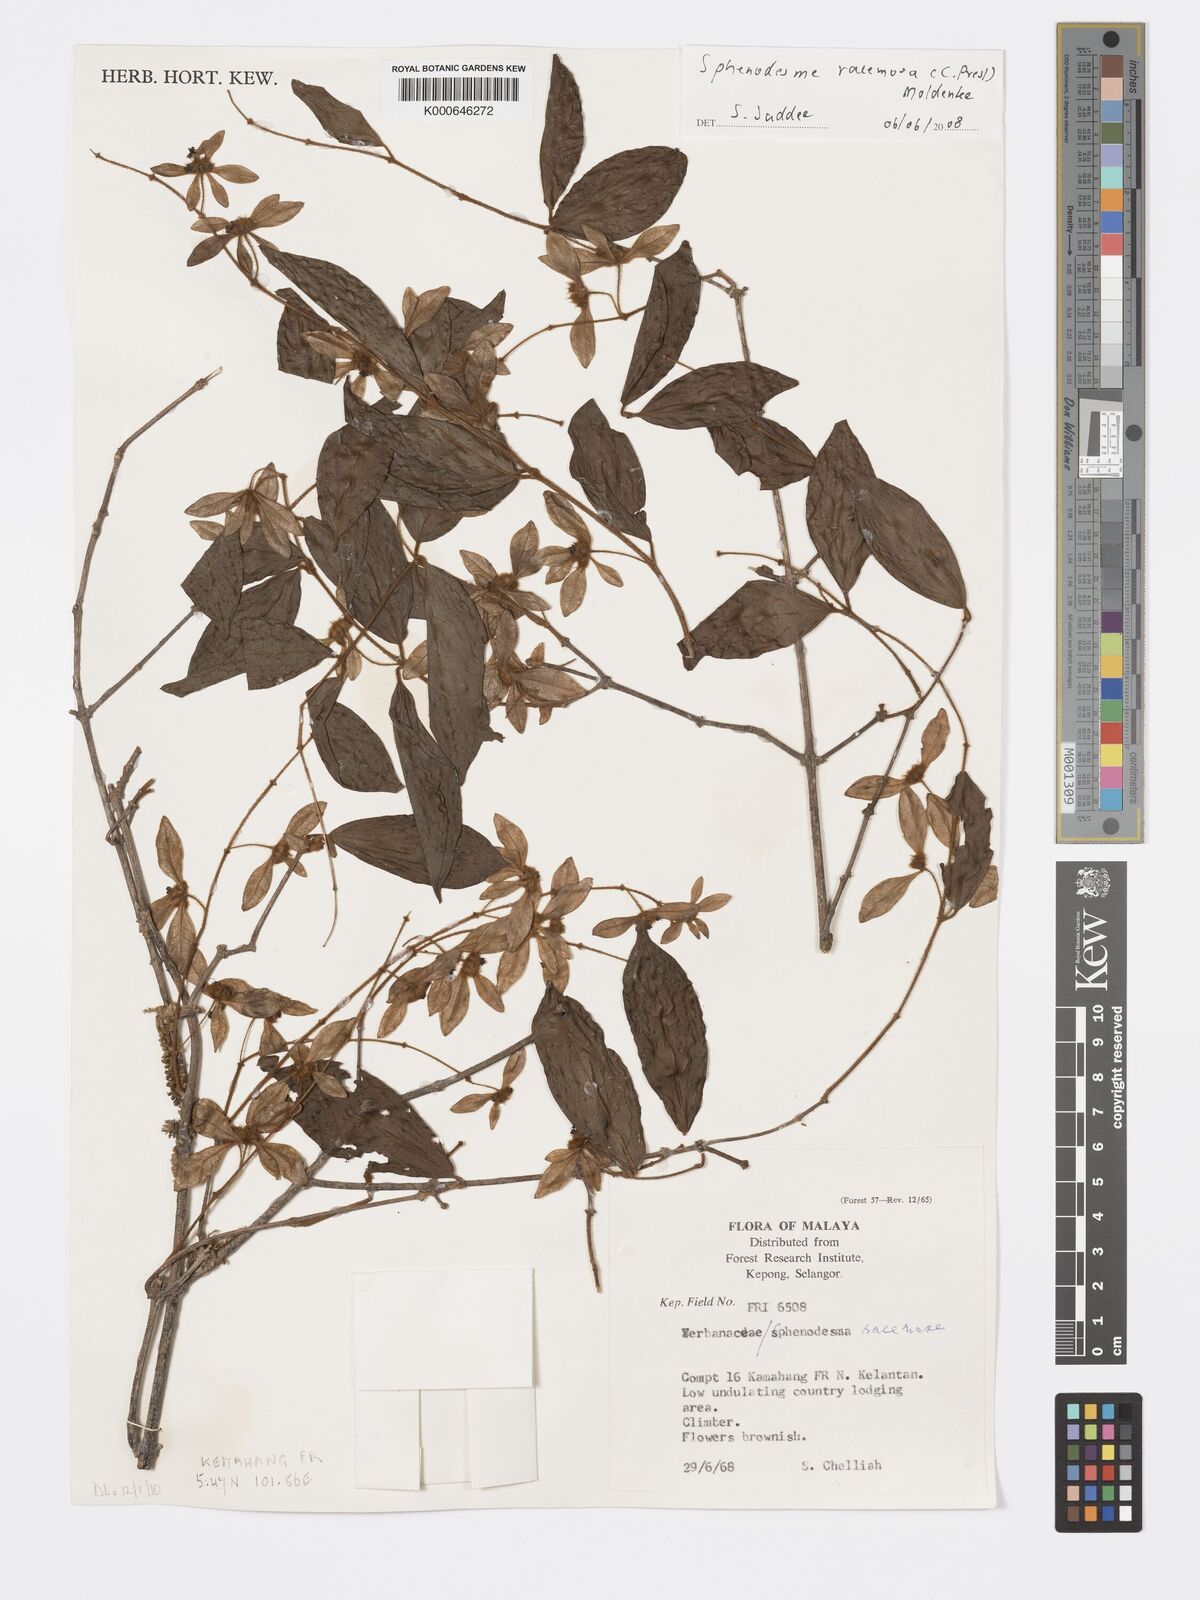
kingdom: Plantae
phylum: Tracheophyta
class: Magnoliopsida
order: Lamiales
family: Lamiaceae
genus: Sphenodesme
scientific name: Sphenodesme racemosa
